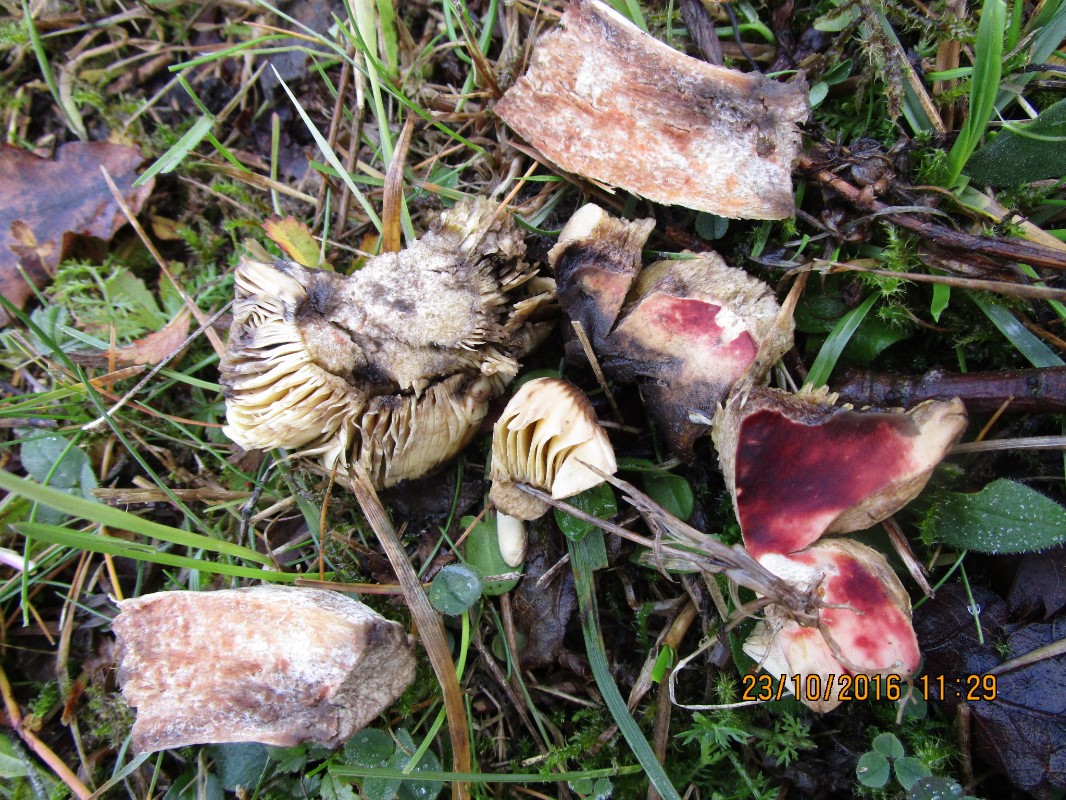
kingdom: Fungi
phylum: Basidiomycota
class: Agaricomycetes
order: Russulales
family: Russulaceae
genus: Russula
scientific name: Russula seperina
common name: rødmende skørhat
